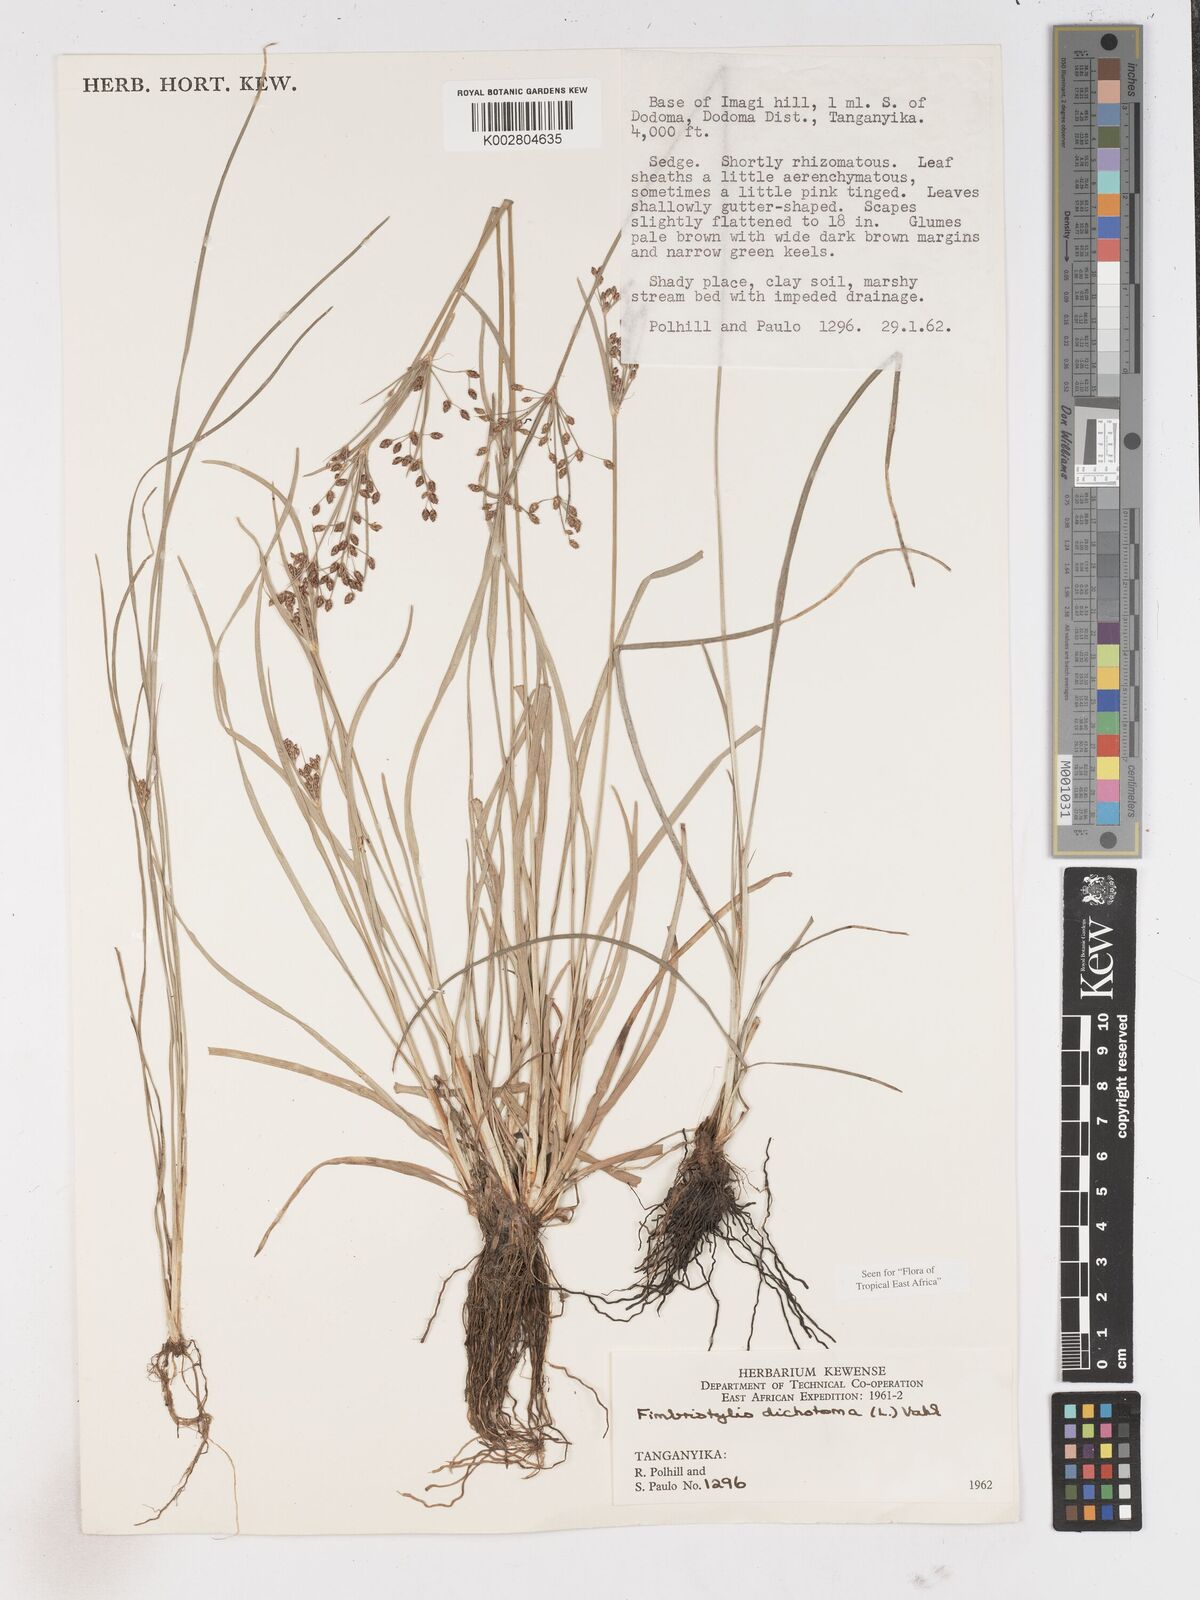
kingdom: Plantae
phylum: Tracheophyta
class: Liliopsida
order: Poales
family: Cyperaceae
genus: Fimbristylis
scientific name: Fimbristylis dichotoma
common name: Forked fimbry
